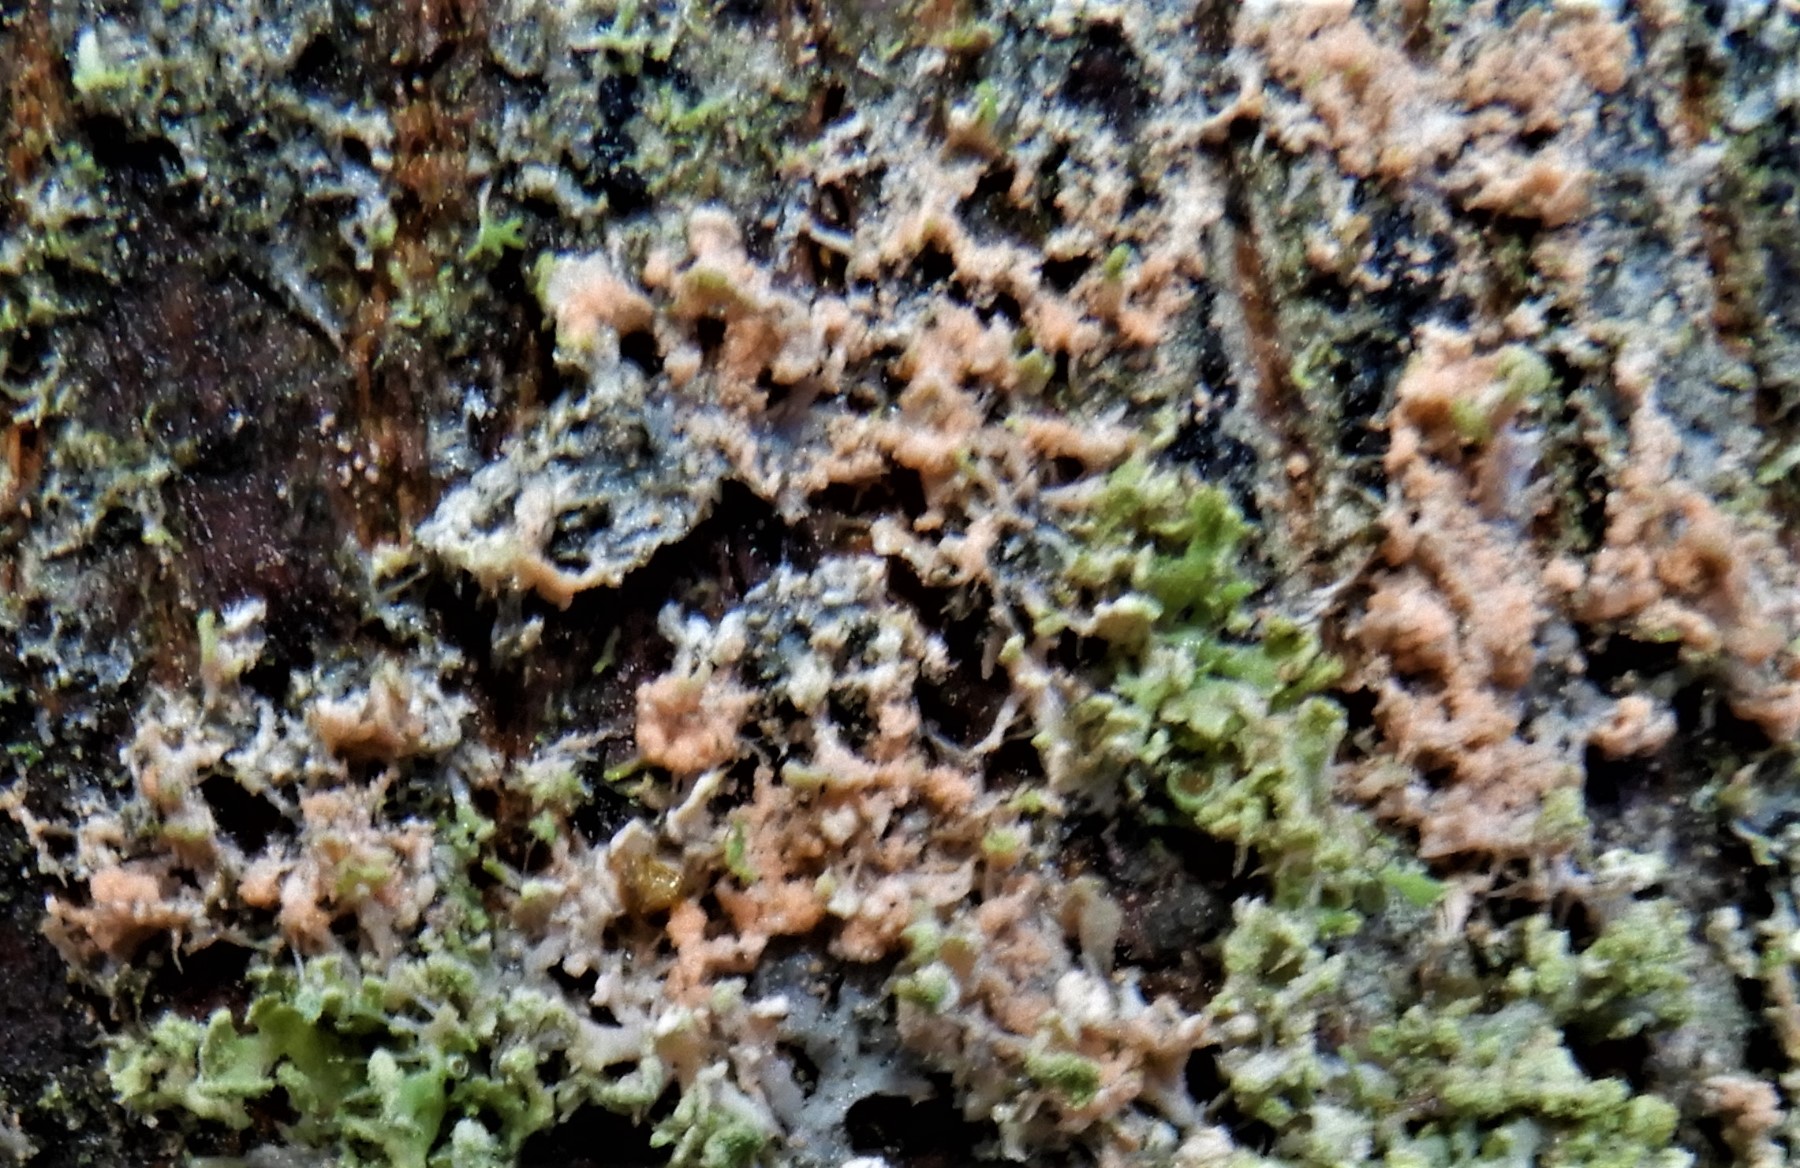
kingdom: Fungi
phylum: Basidiomycota
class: Agaricomycetes
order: Corticiales
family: Corticiaceae
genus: Erythricium
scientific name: Erythricium aurantiacum
